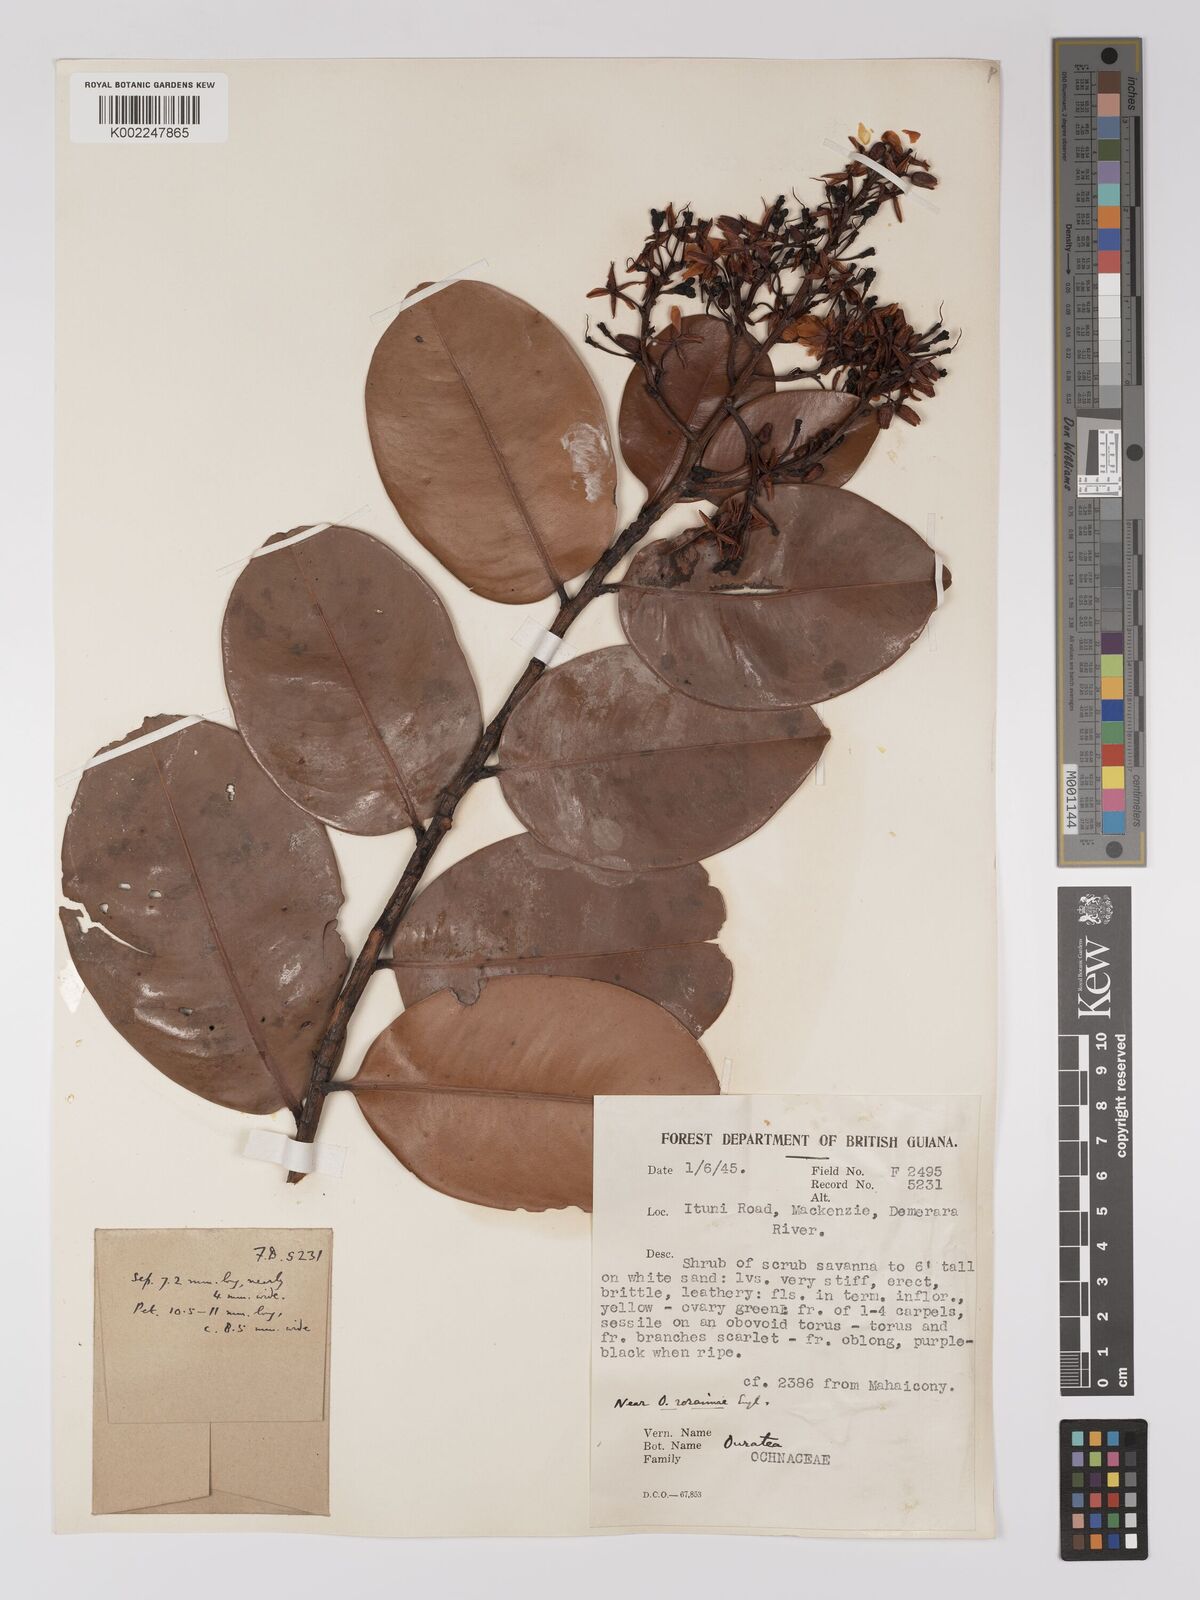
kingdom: Plantae
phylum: Tracheophyta
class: Magnoliopsida
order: Malpighiales
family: Ochnaceae
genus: Ouratea
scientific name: Ouratea
